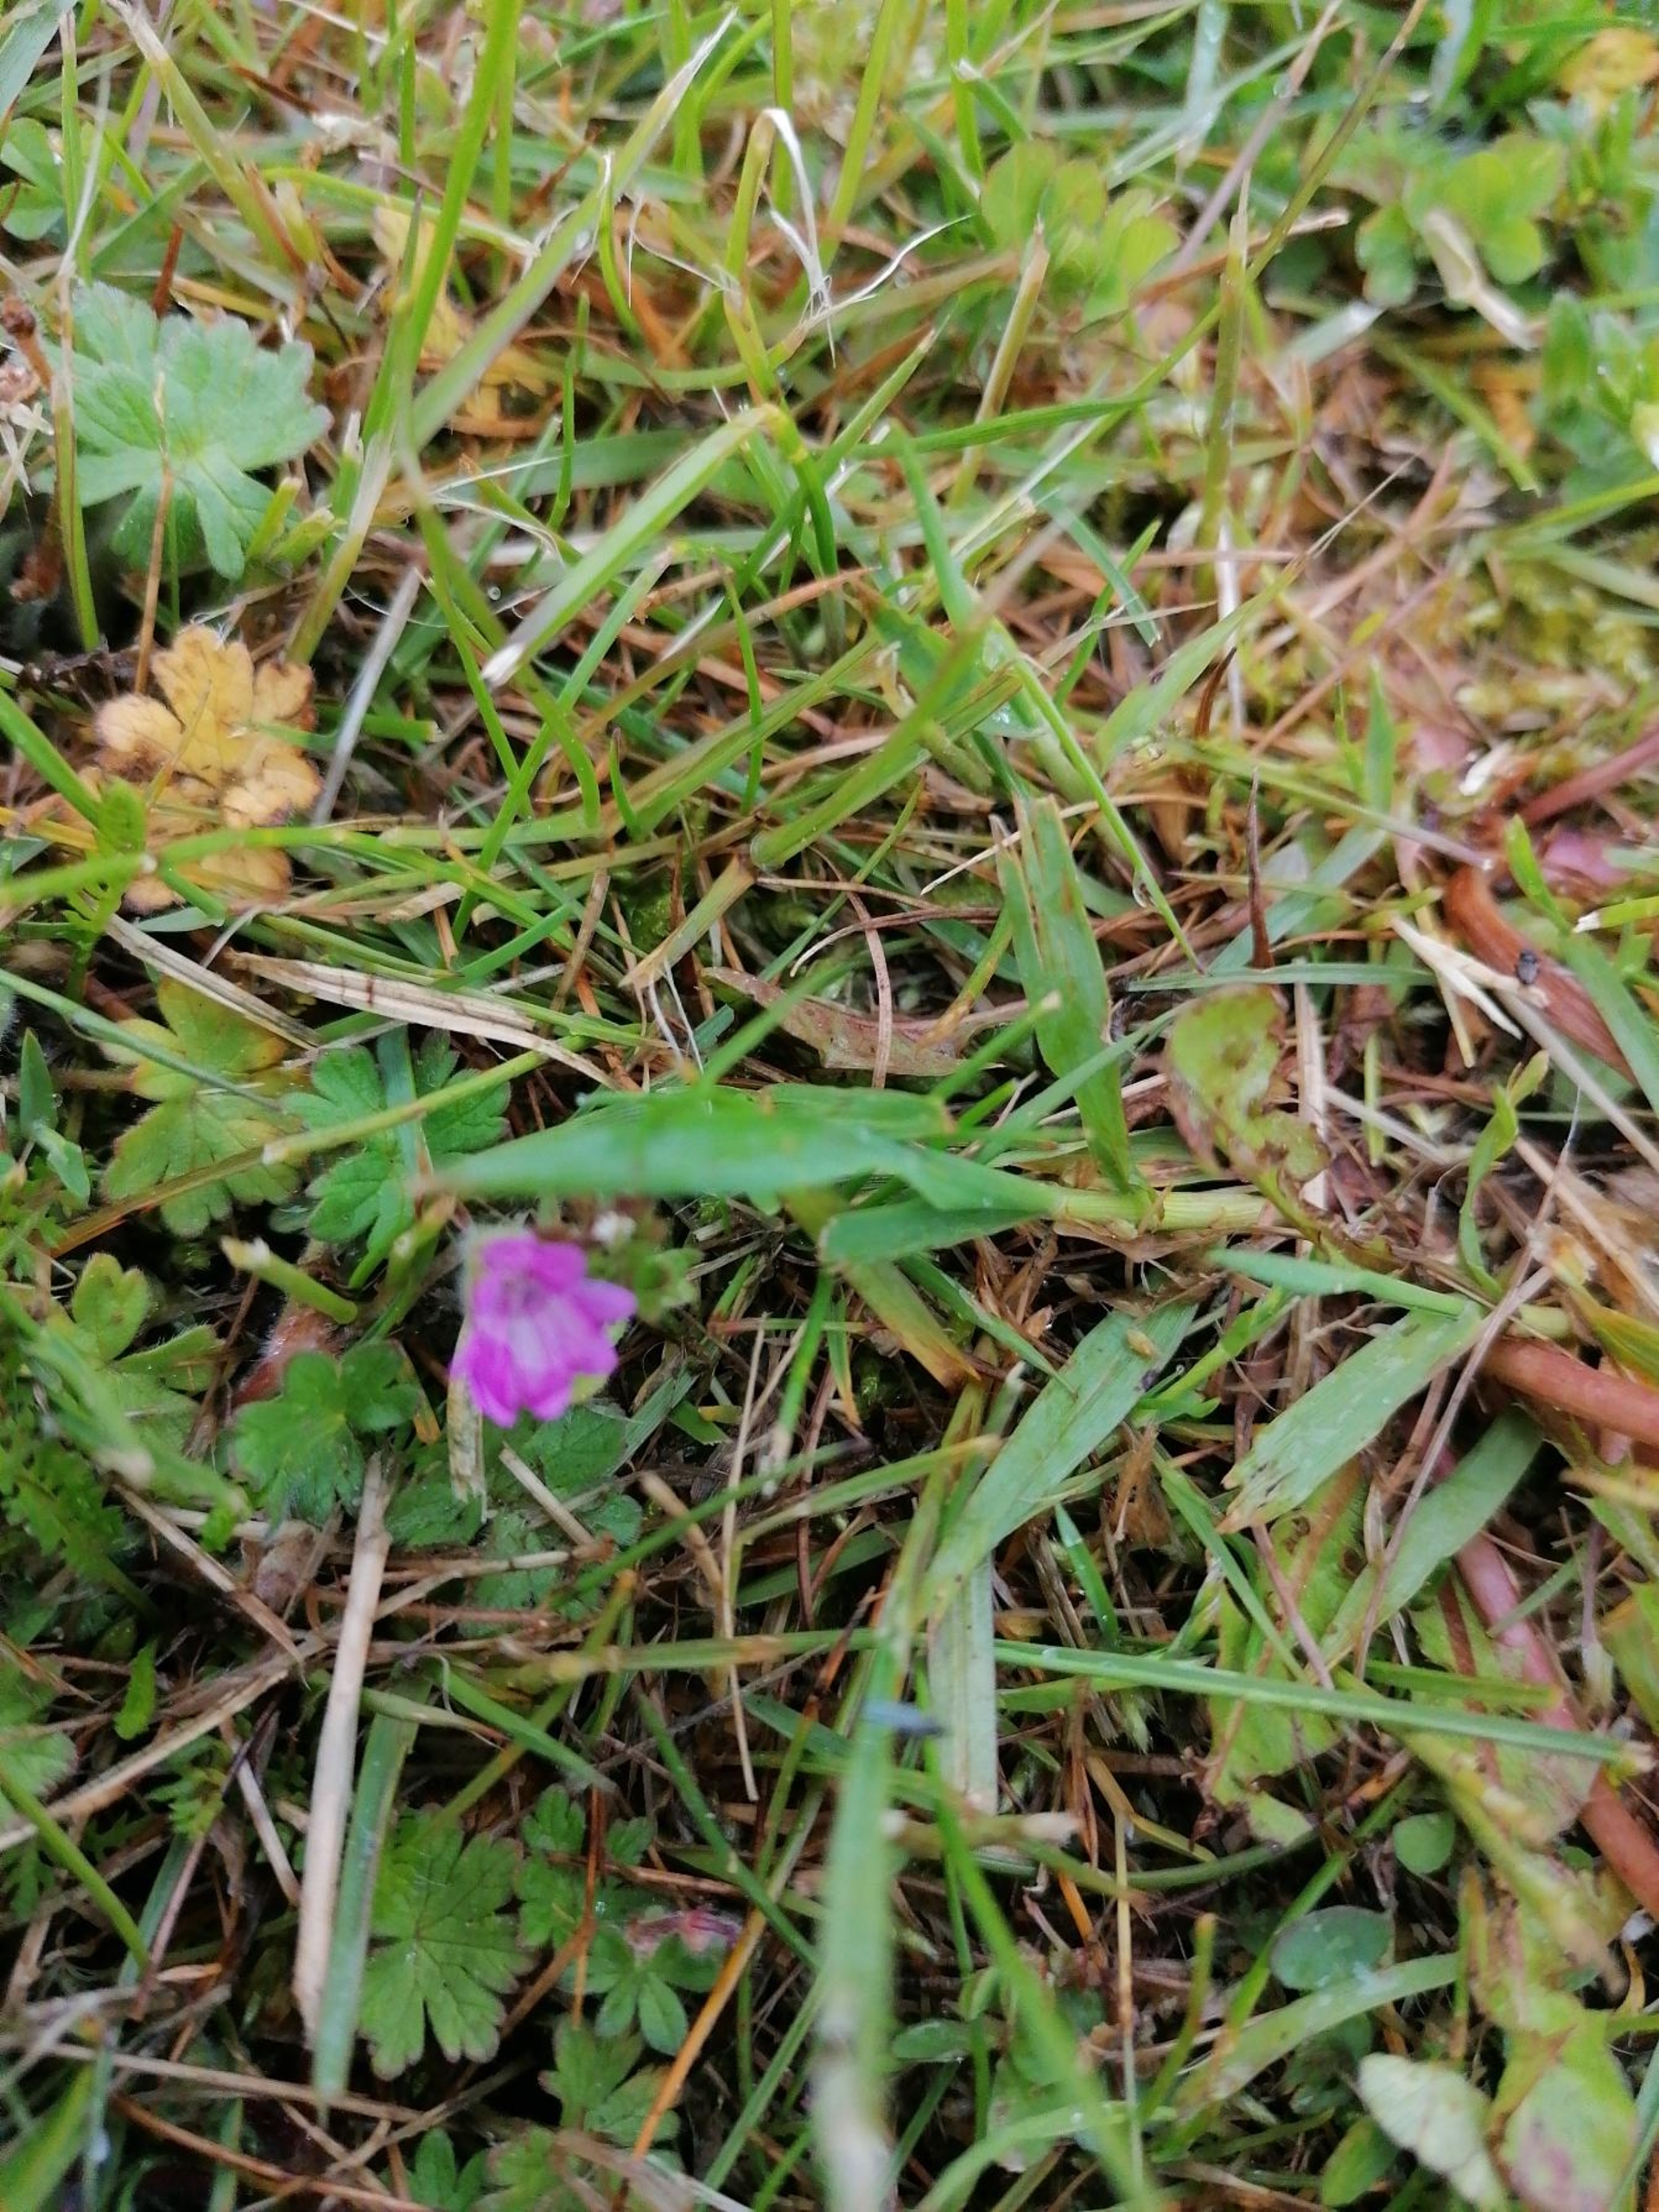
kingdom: Plantae
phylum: Tracheophyta
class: Magnoliopsida
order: Geraniales
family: Geraniaceae
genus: Geranium
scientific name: Geranium molle
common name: Blød storkenæb
